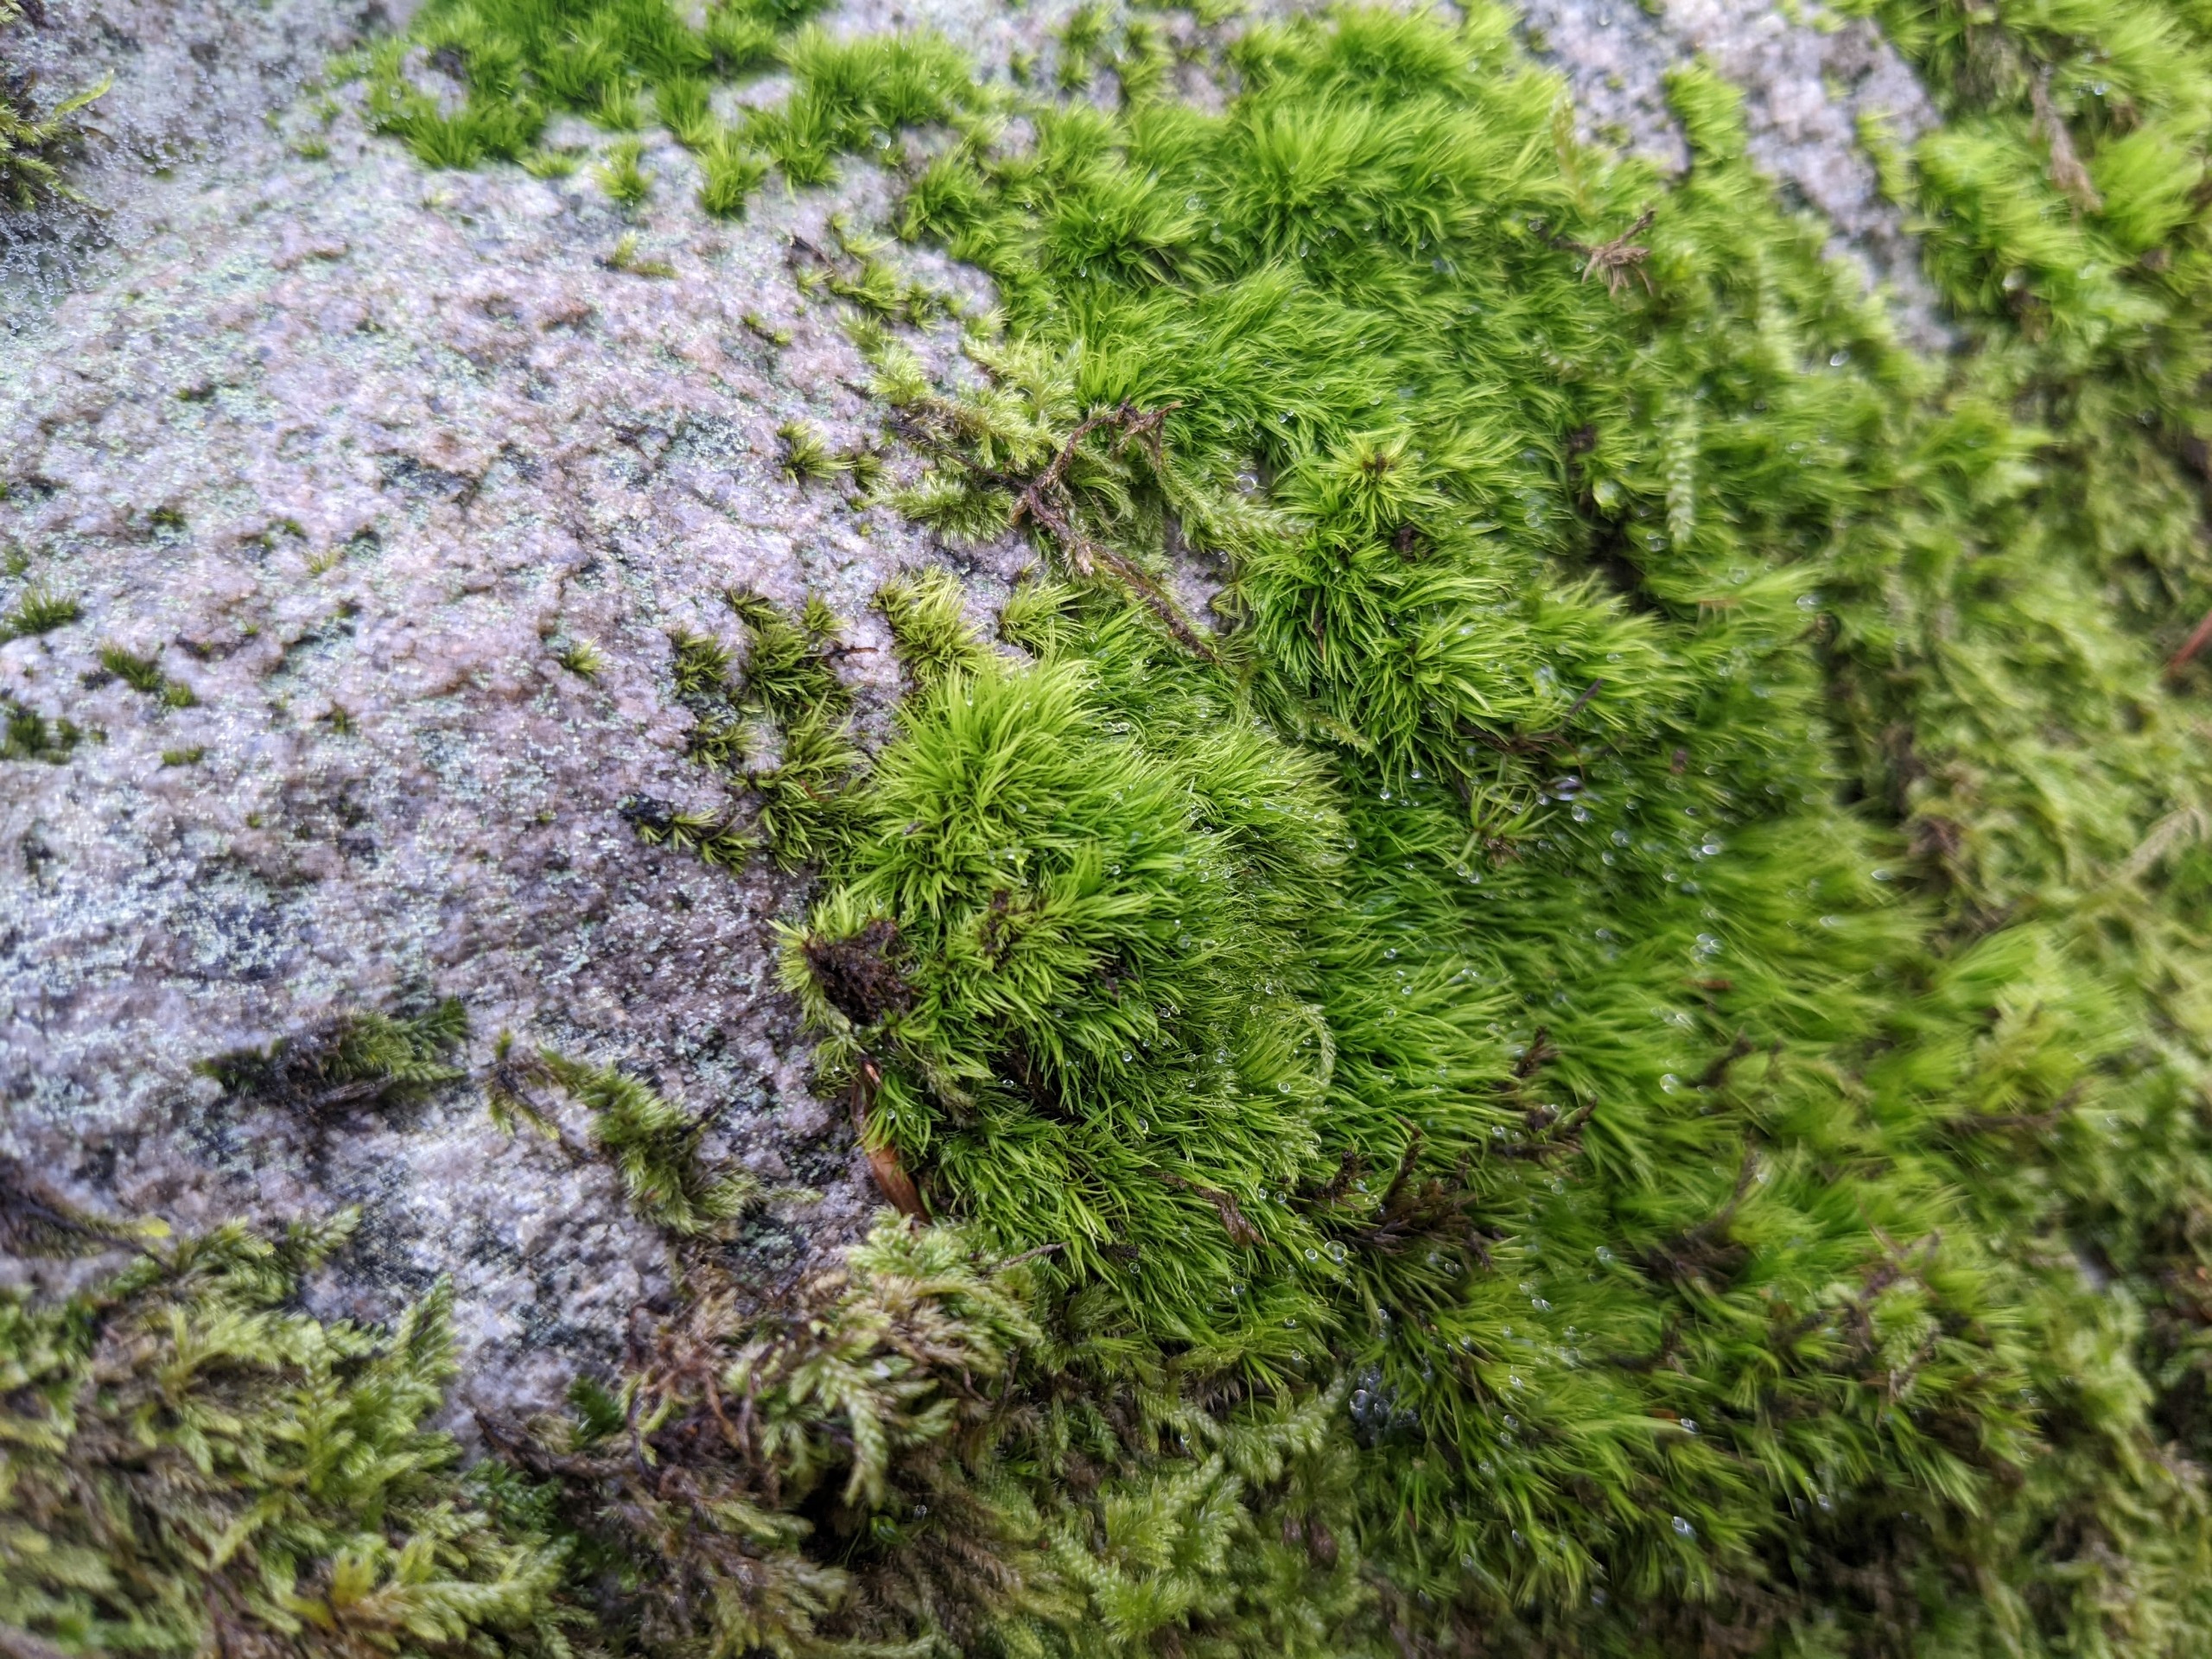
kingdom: Plantae
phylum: Bryophyta
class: Bryopsida
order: Dicranales
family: Dicranaceae
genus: Paraleucobryum
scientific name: Paraleucobryum longifolium
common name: Skov-ribbemos
